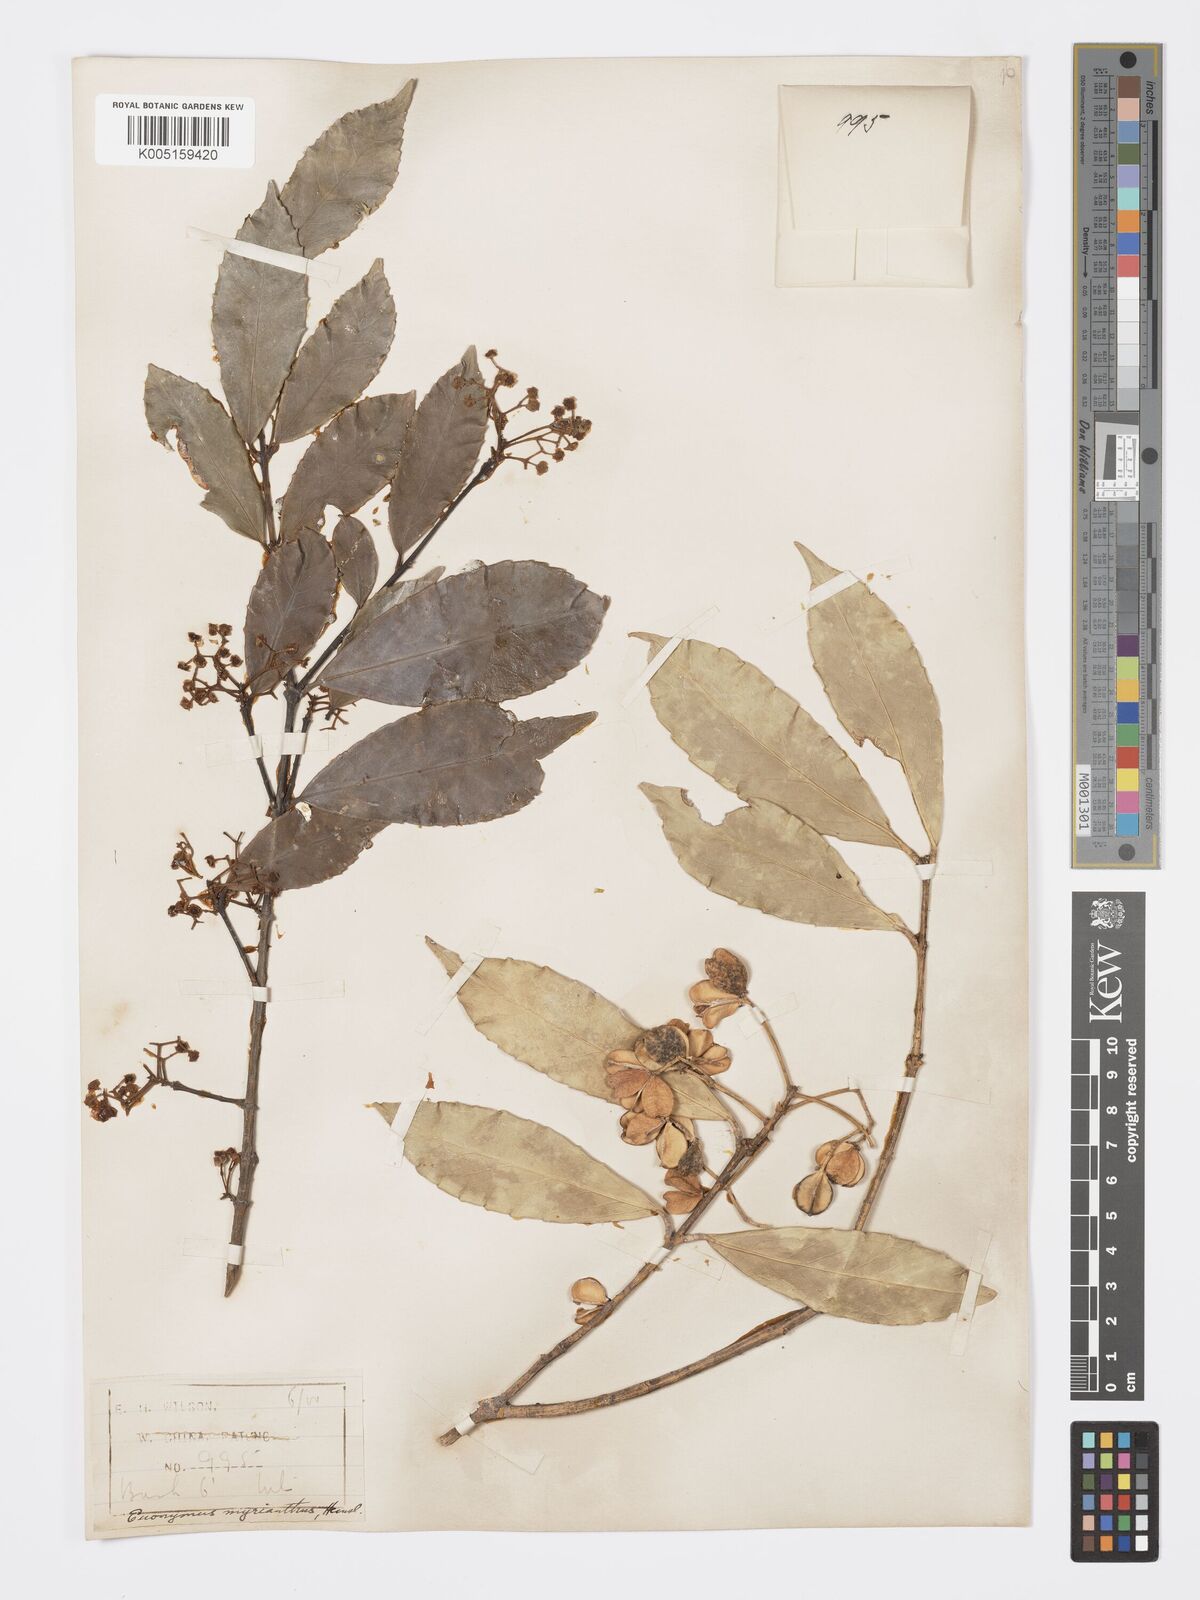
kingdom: Plantae
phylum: Tracheophyta
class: Magnoliopsida
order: Celastrales
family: Celastraceae
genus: Euonymus
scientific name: Euonymus myrianthus
